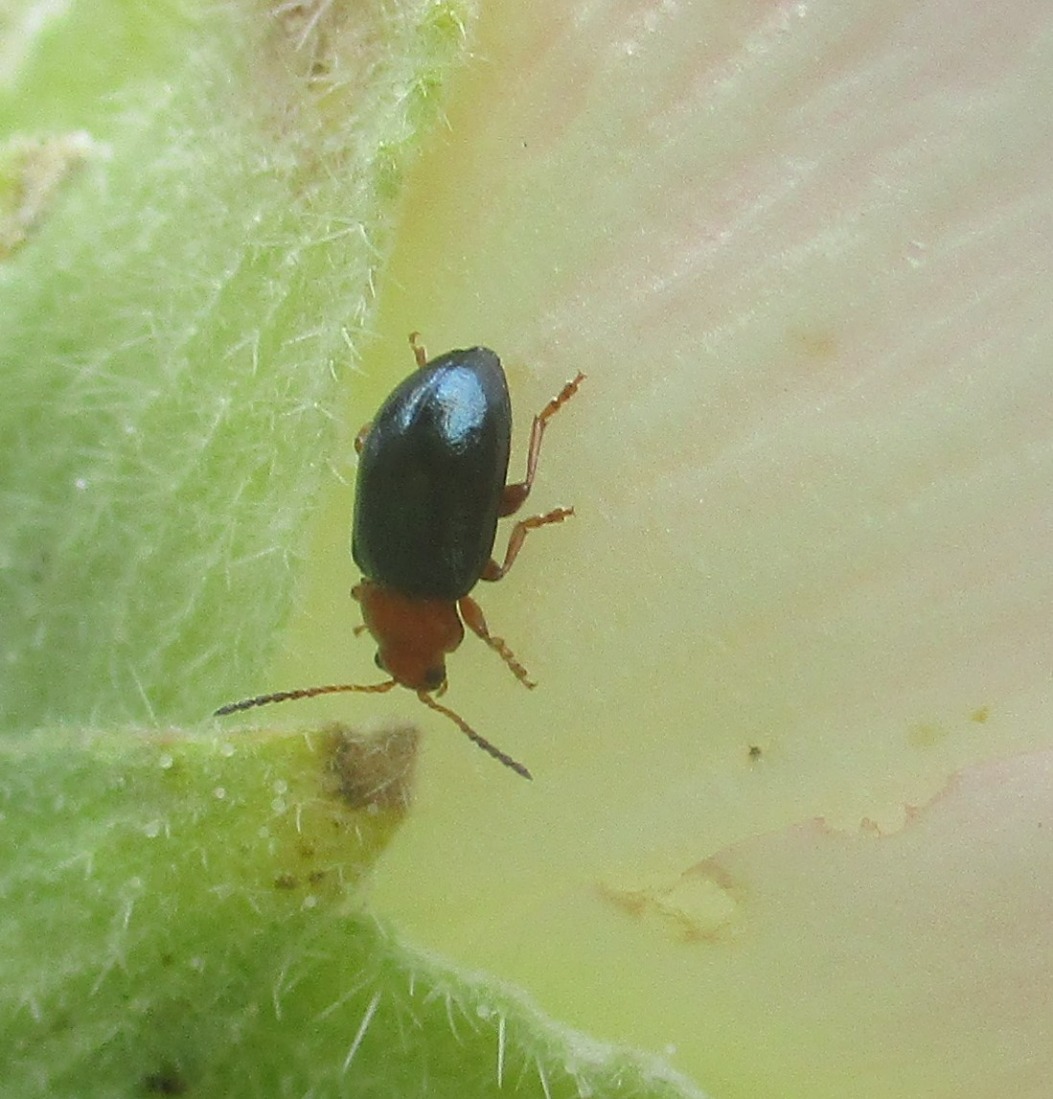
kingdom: Animalia
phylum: Arthropoda
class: Insecta
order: Coleoptera
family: Chrysomelidae
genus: Podagrica
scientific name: Podagrica fuscicornis
